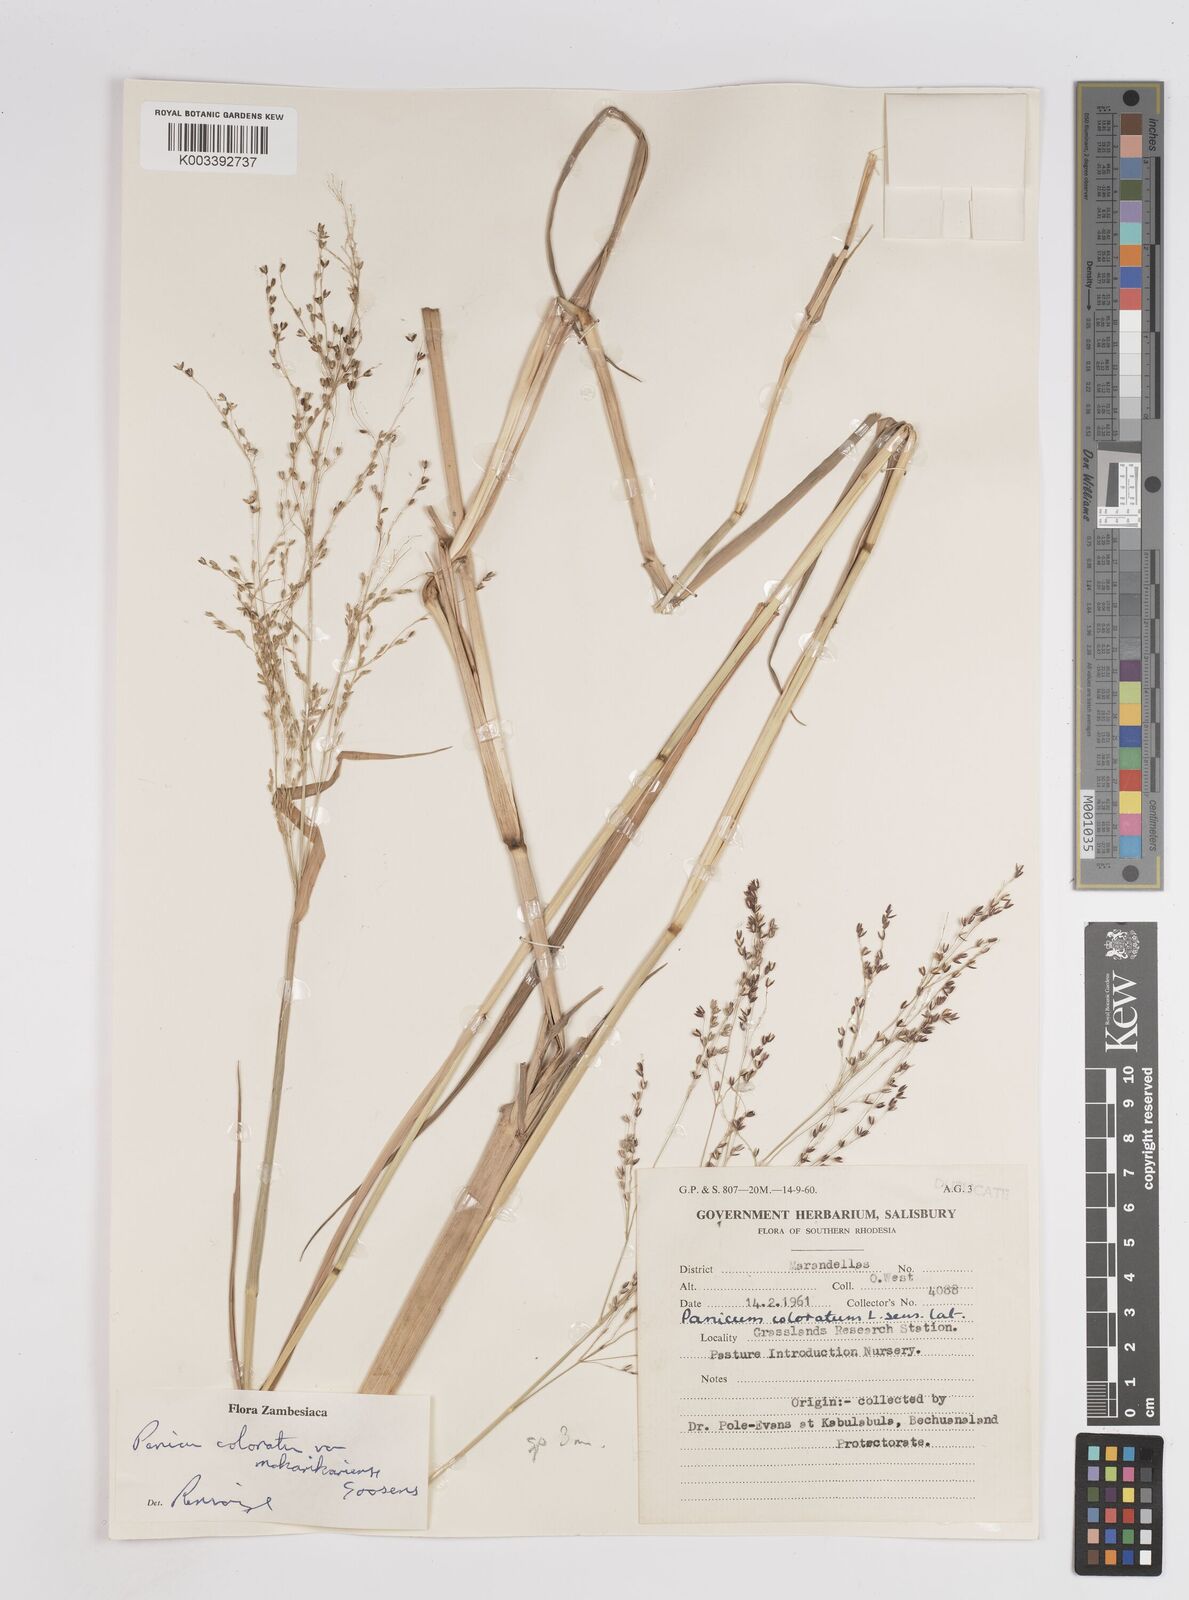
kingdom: Plantae
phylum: Tracheophyta
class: Liliopsida
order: Poales
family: Poaceae
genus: Panicum
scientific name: Panicum coloratum
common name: Kleingrass
